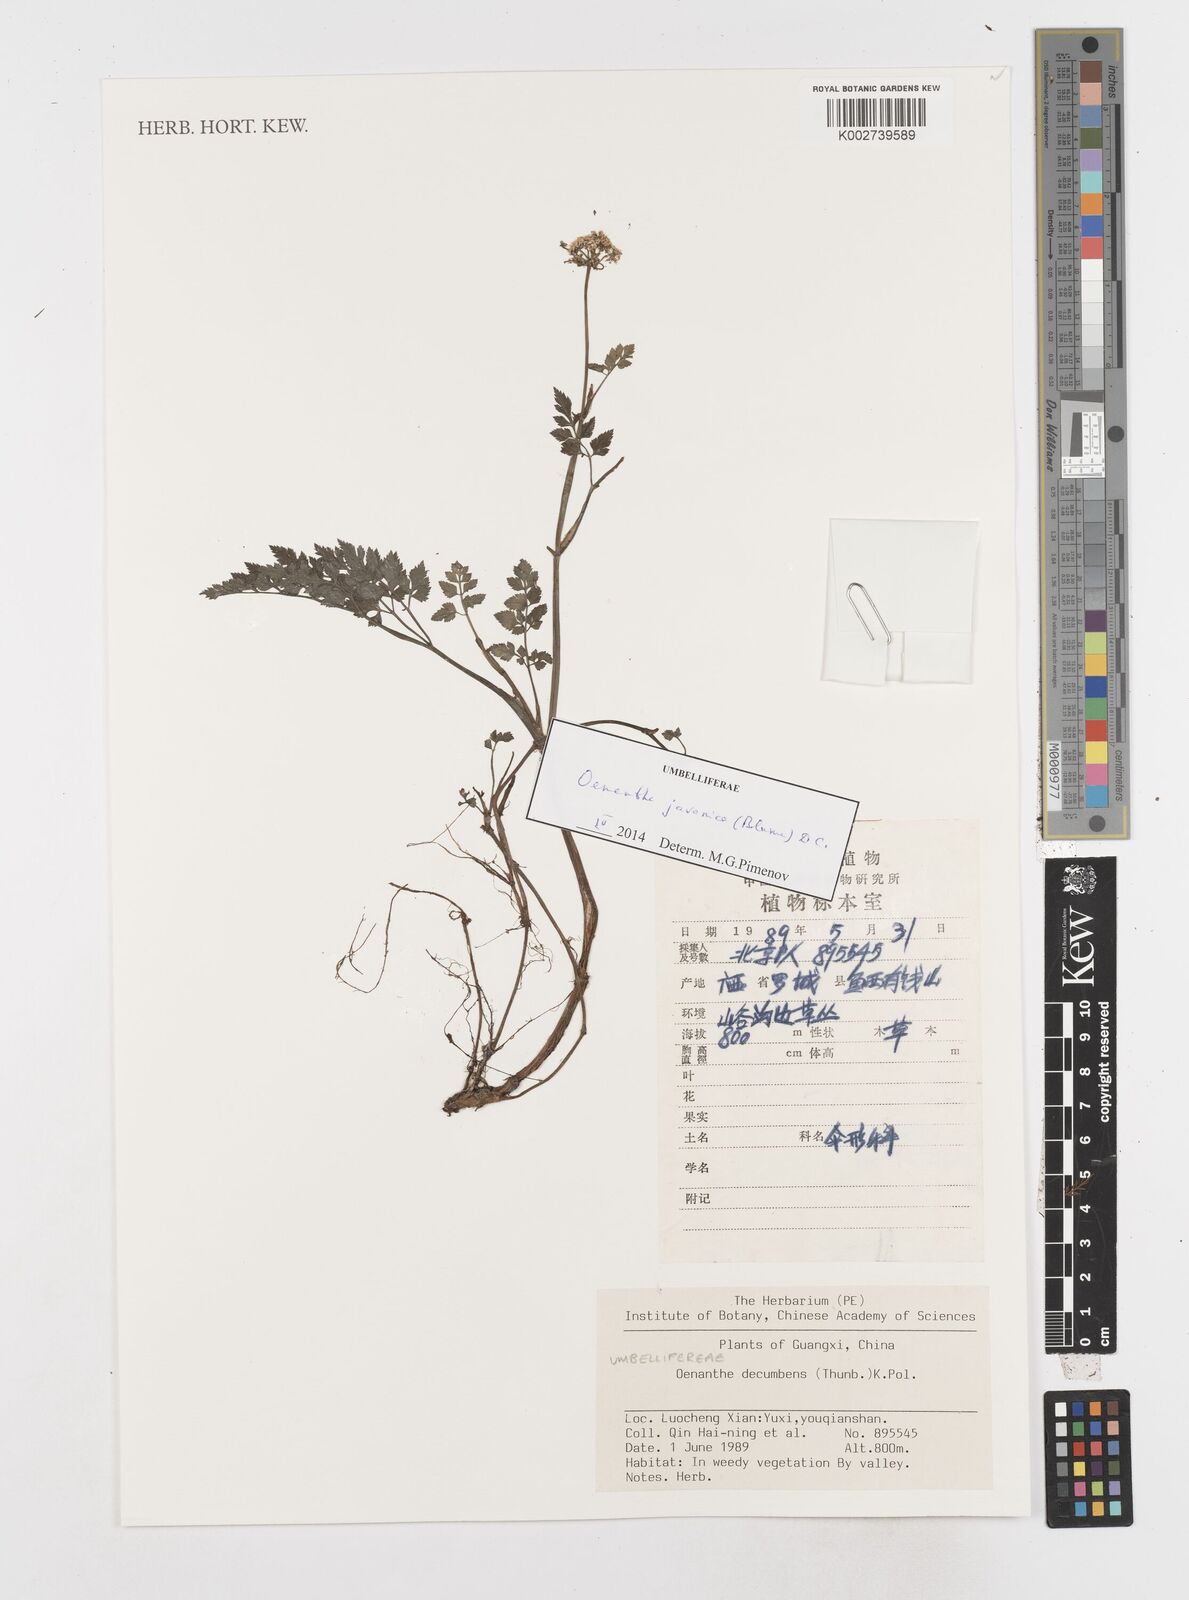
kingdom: Plantae
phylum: Tracheophyta
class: Magnoliopsida
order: Apiales
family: Apiaceae
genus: Oenanthe
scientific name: Oenanthe
